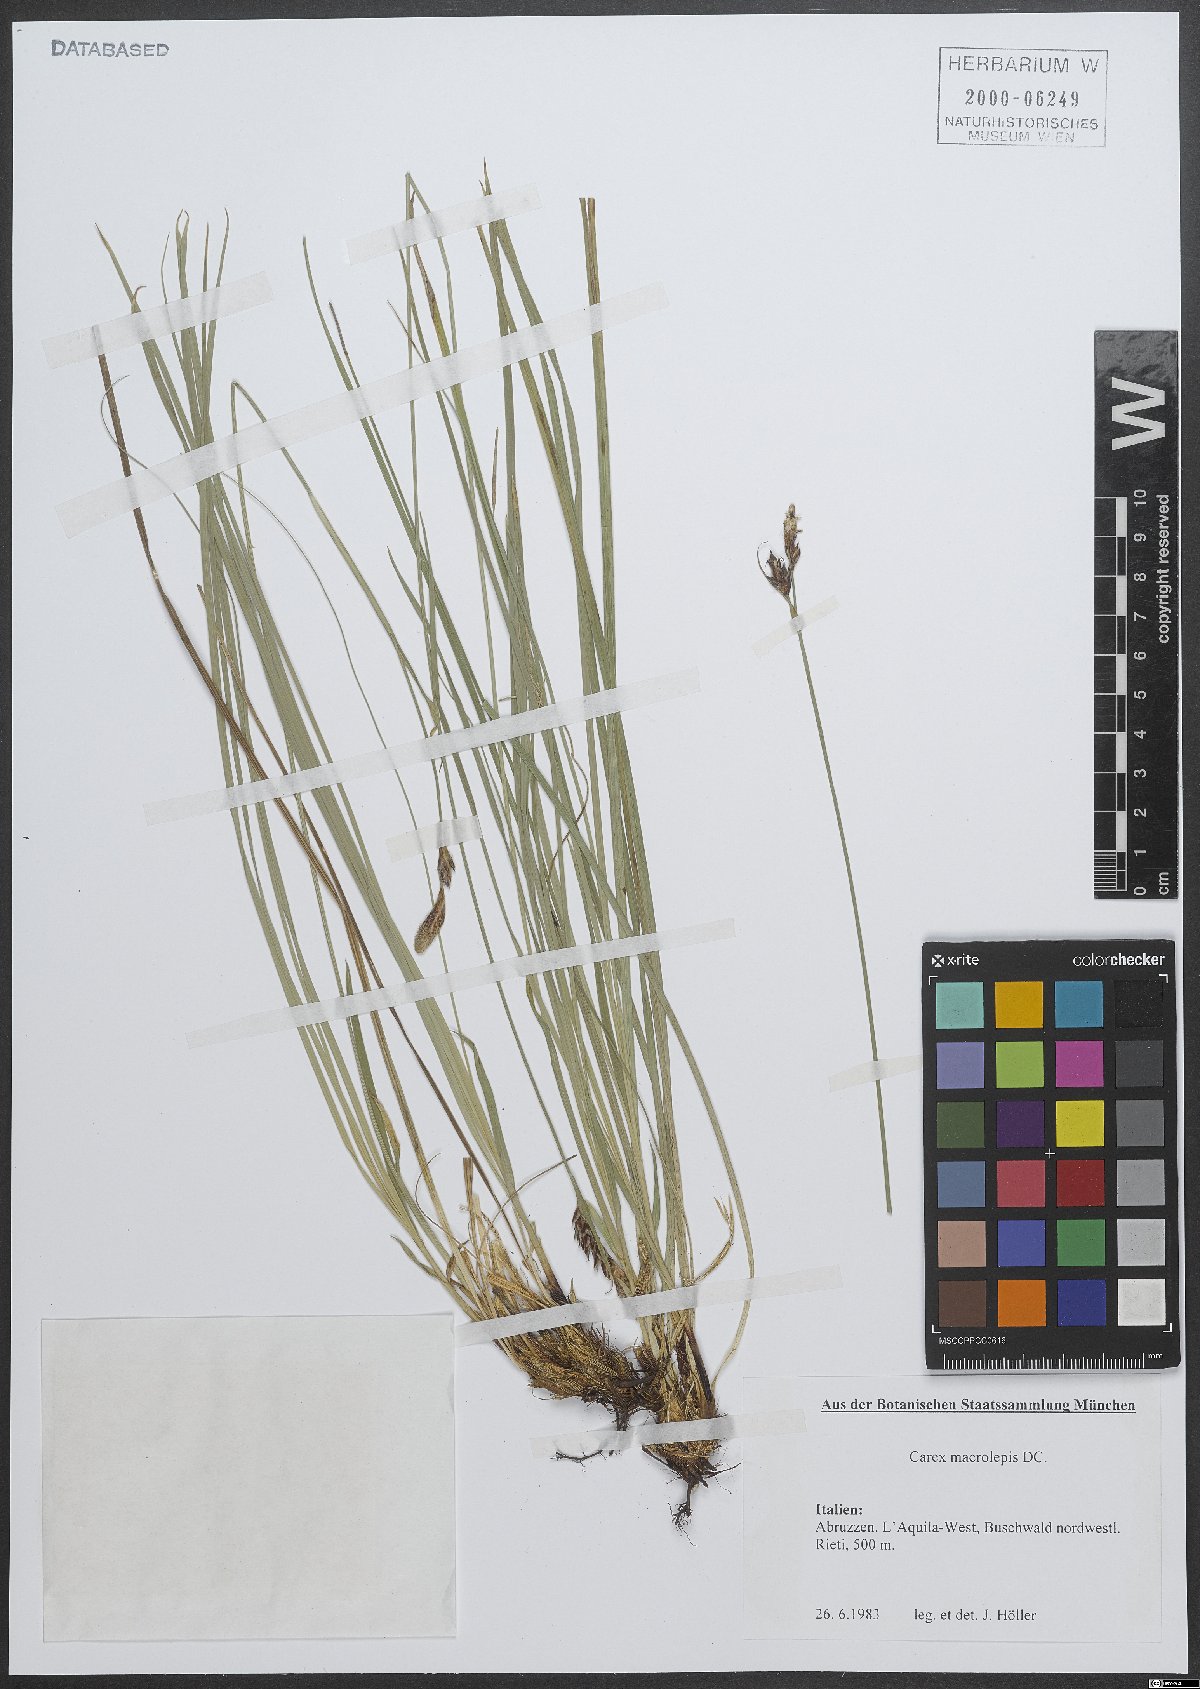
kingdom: Plantae
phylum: Tracheophyta
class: Liliopsida
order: Poales
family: Cyperaceae
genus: Carex
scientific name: Carex macrolepis
